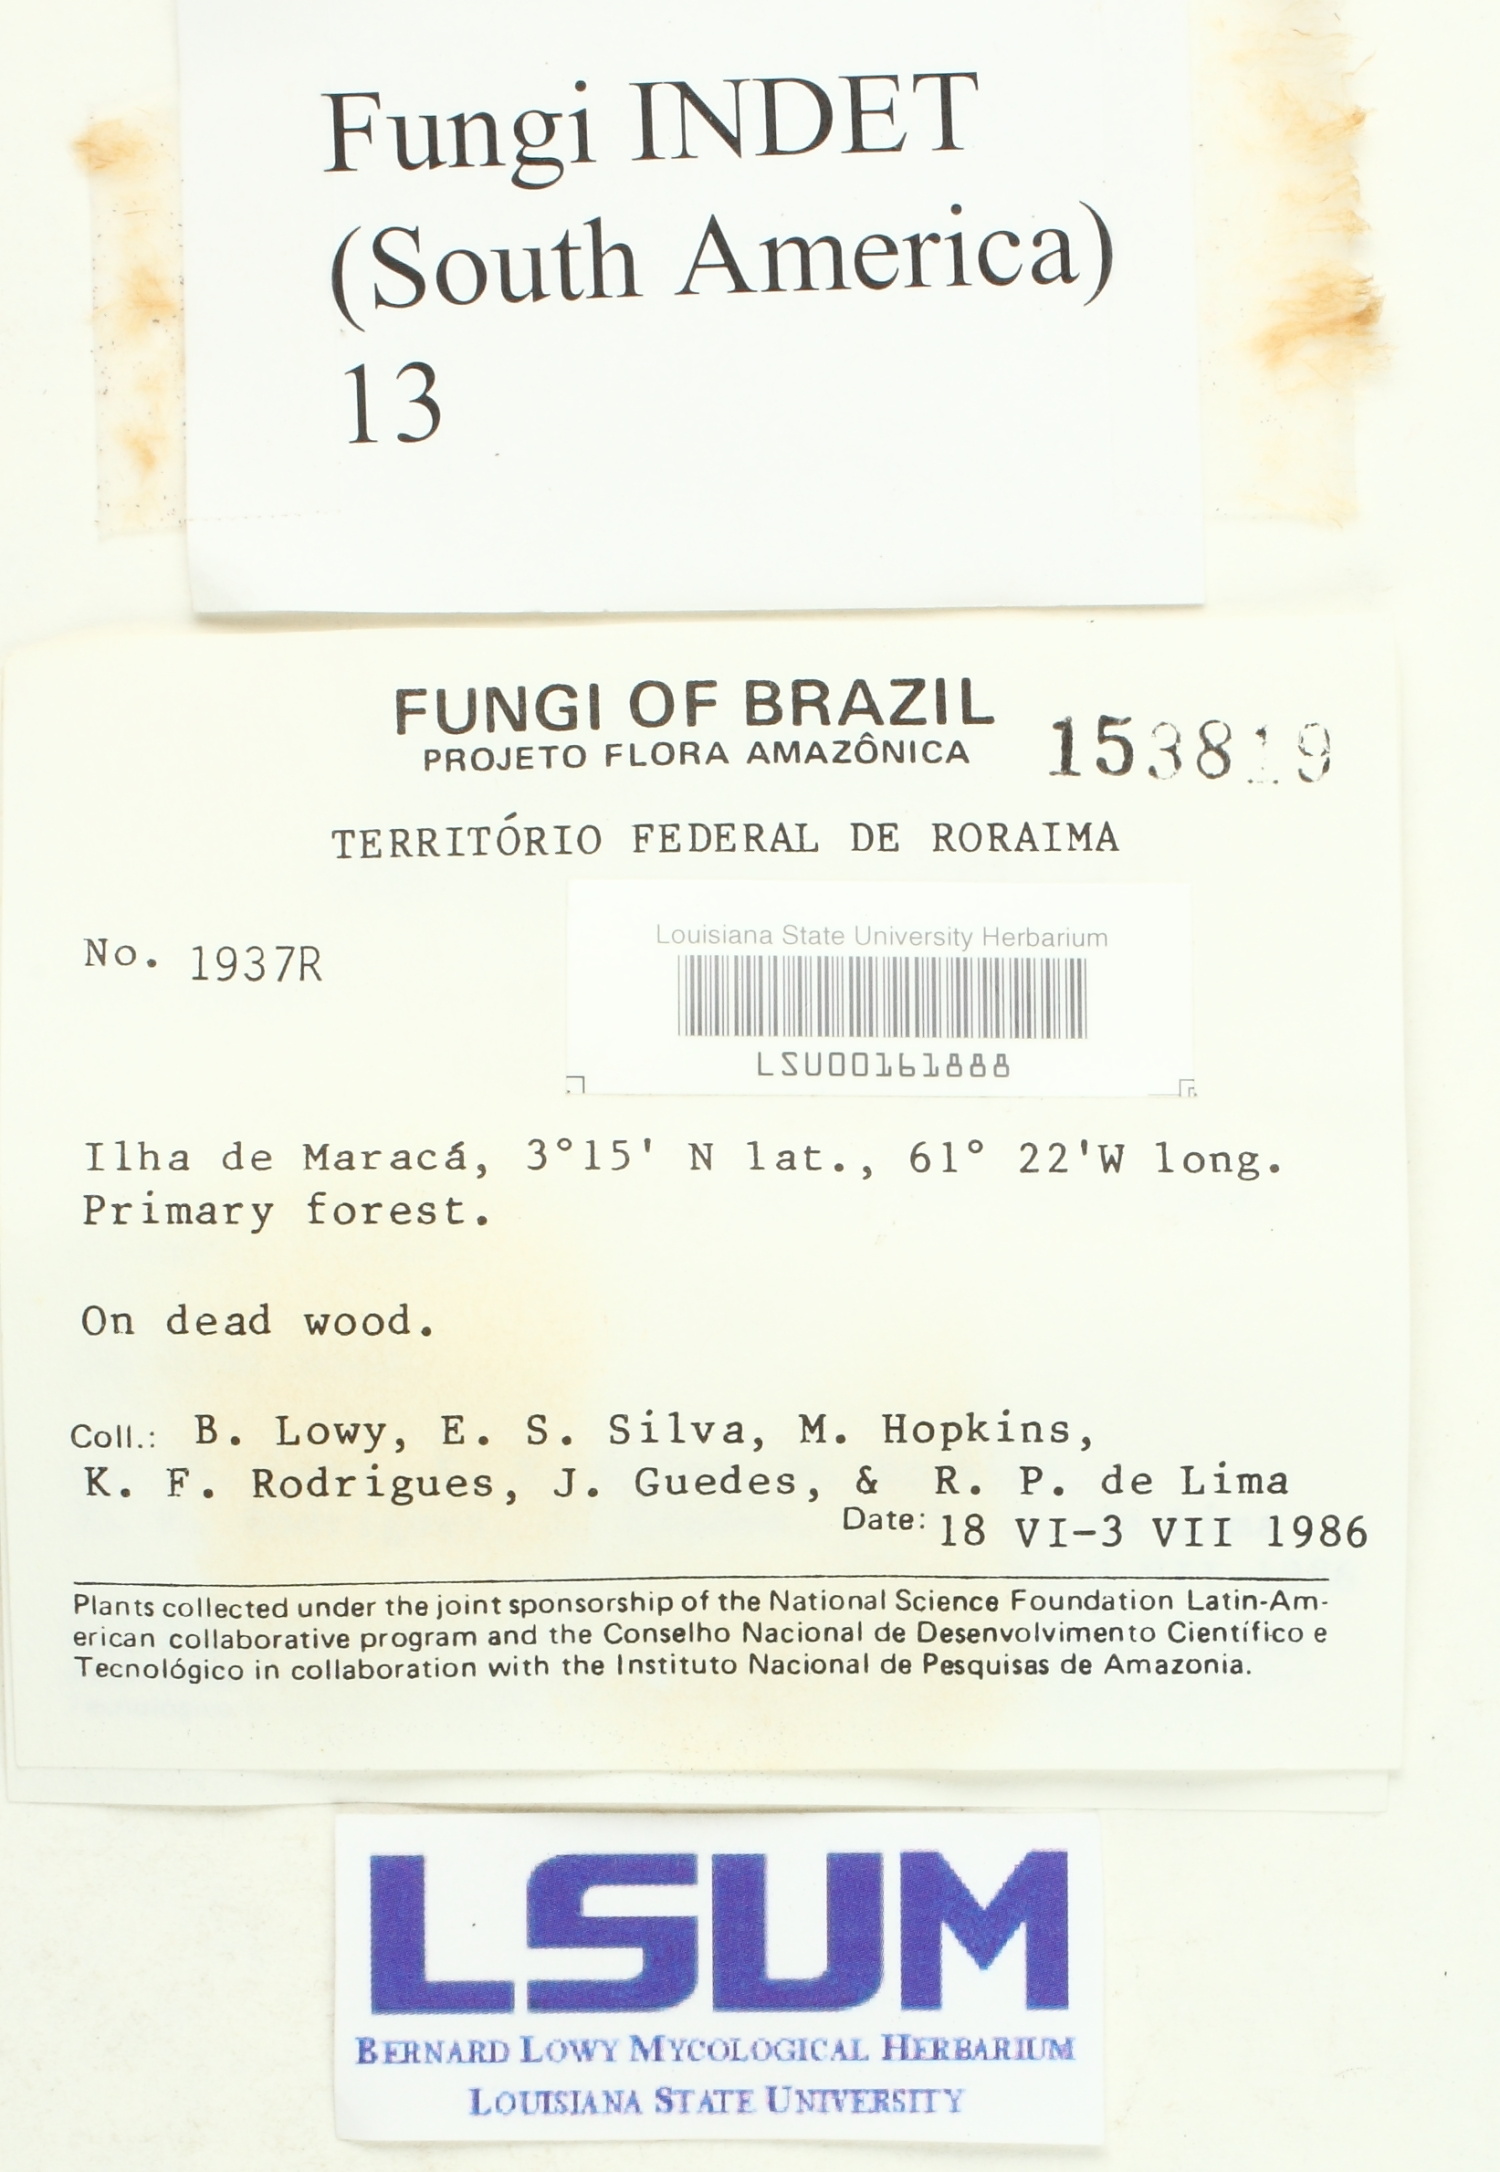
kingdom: Fungi
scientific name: Fungi
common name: Fungi
